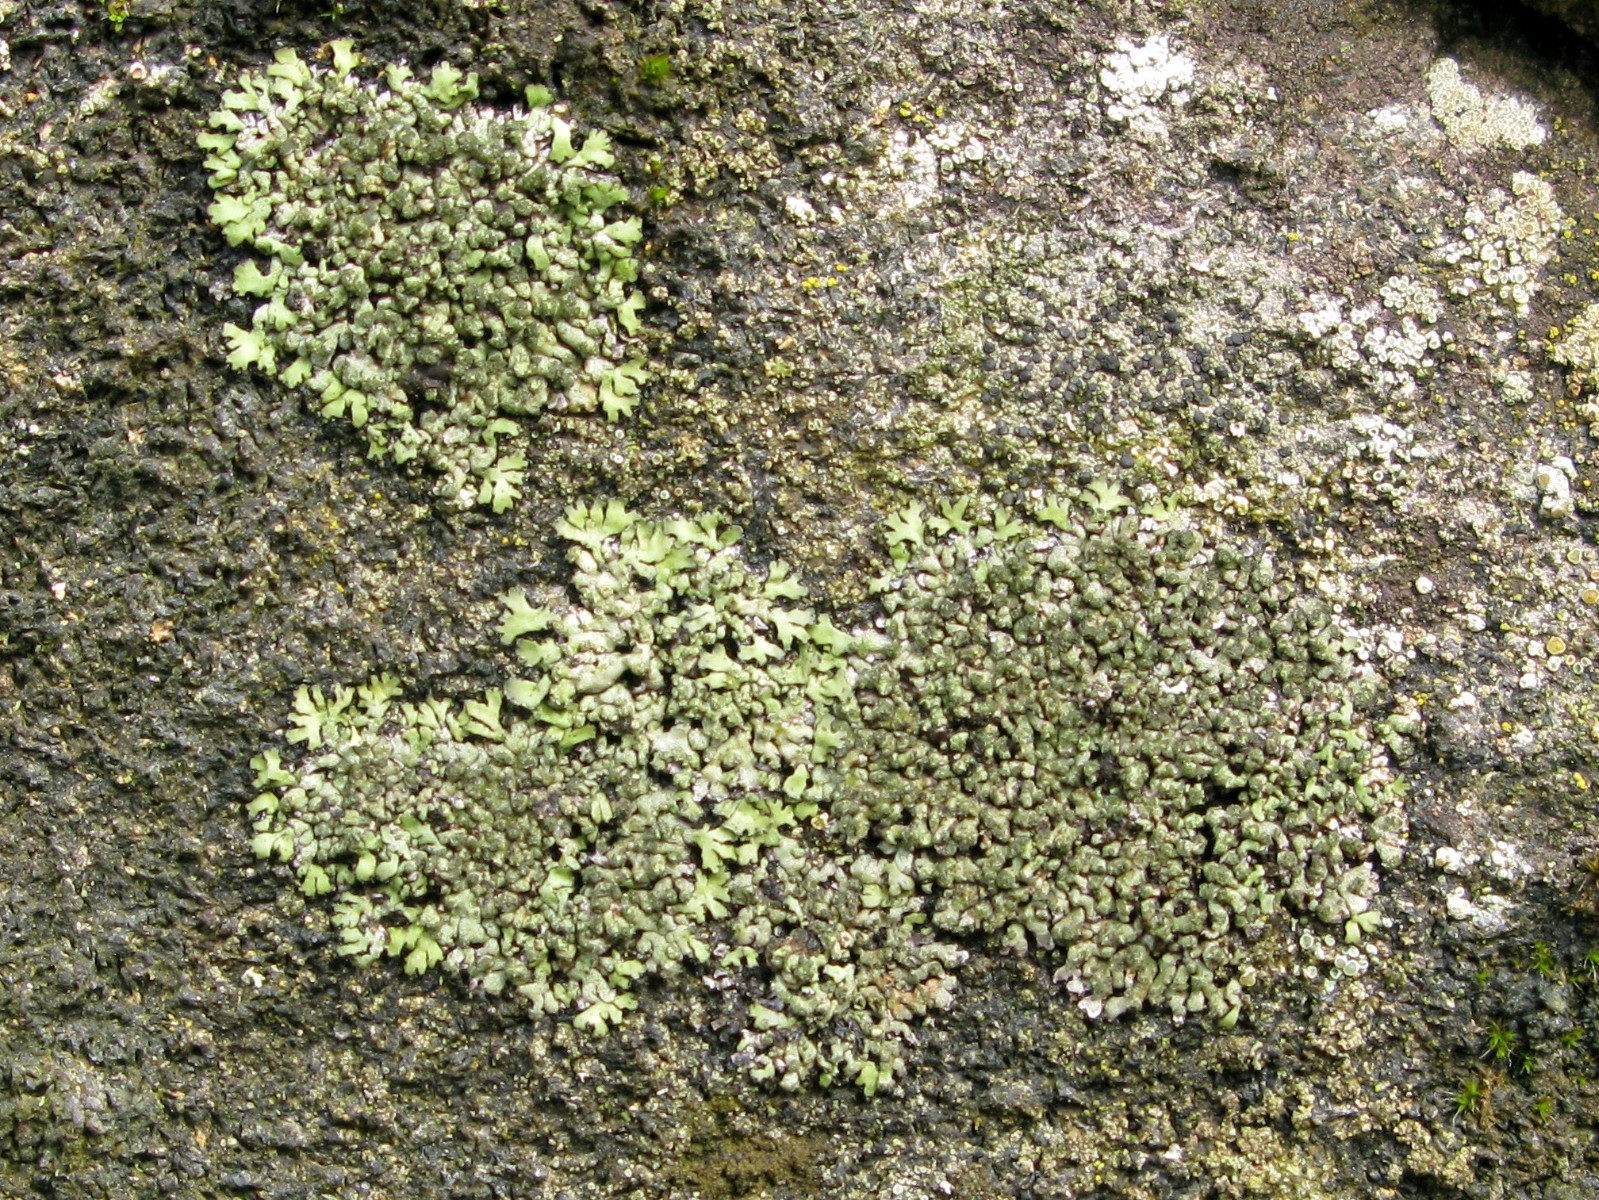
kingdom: Fungi
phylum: Ascomycota
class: Lecanoromycetes
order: Caliciales
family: Physciaceae
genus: Phaeophyscia
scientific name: Phaeophyscia orbicularis
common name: grågrøn rosetlav
